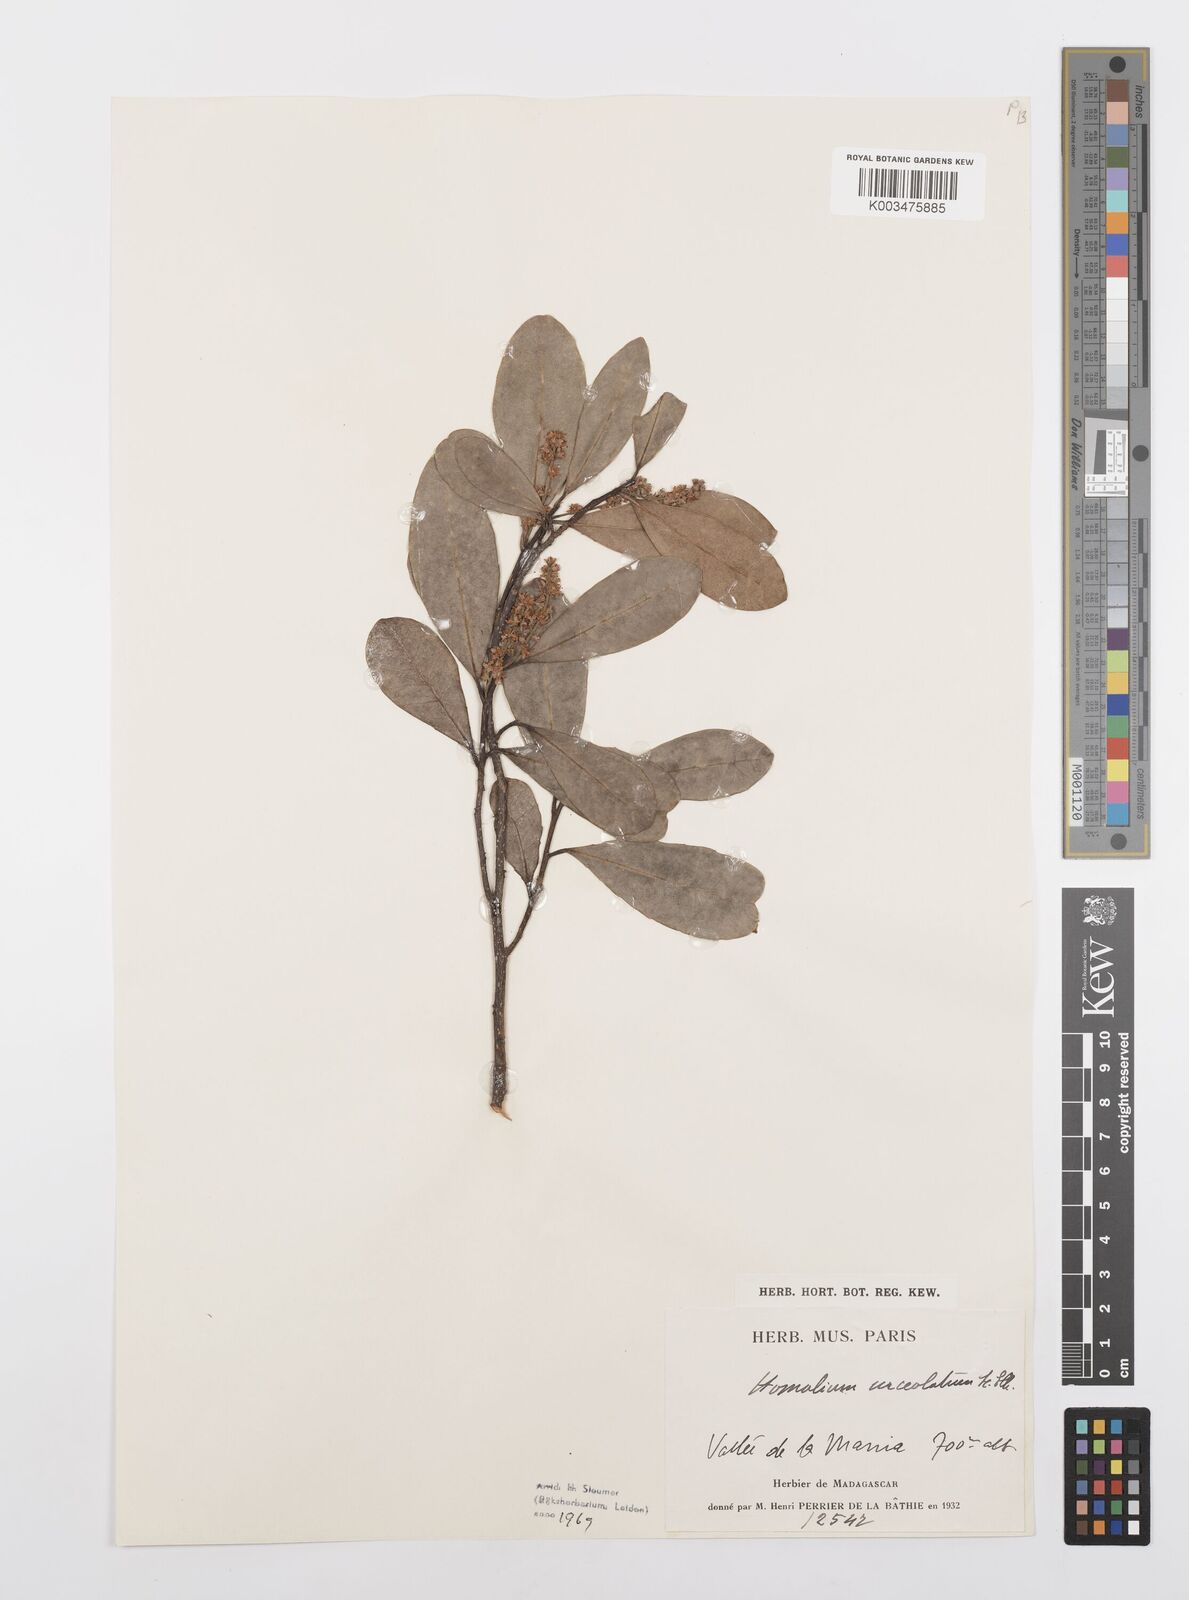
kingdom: Plantae
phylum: Tracheophyta
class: Magnoliopsida
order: Malpighiales
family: Salicaceae
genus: Homalium
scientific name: Homalium trigynum
